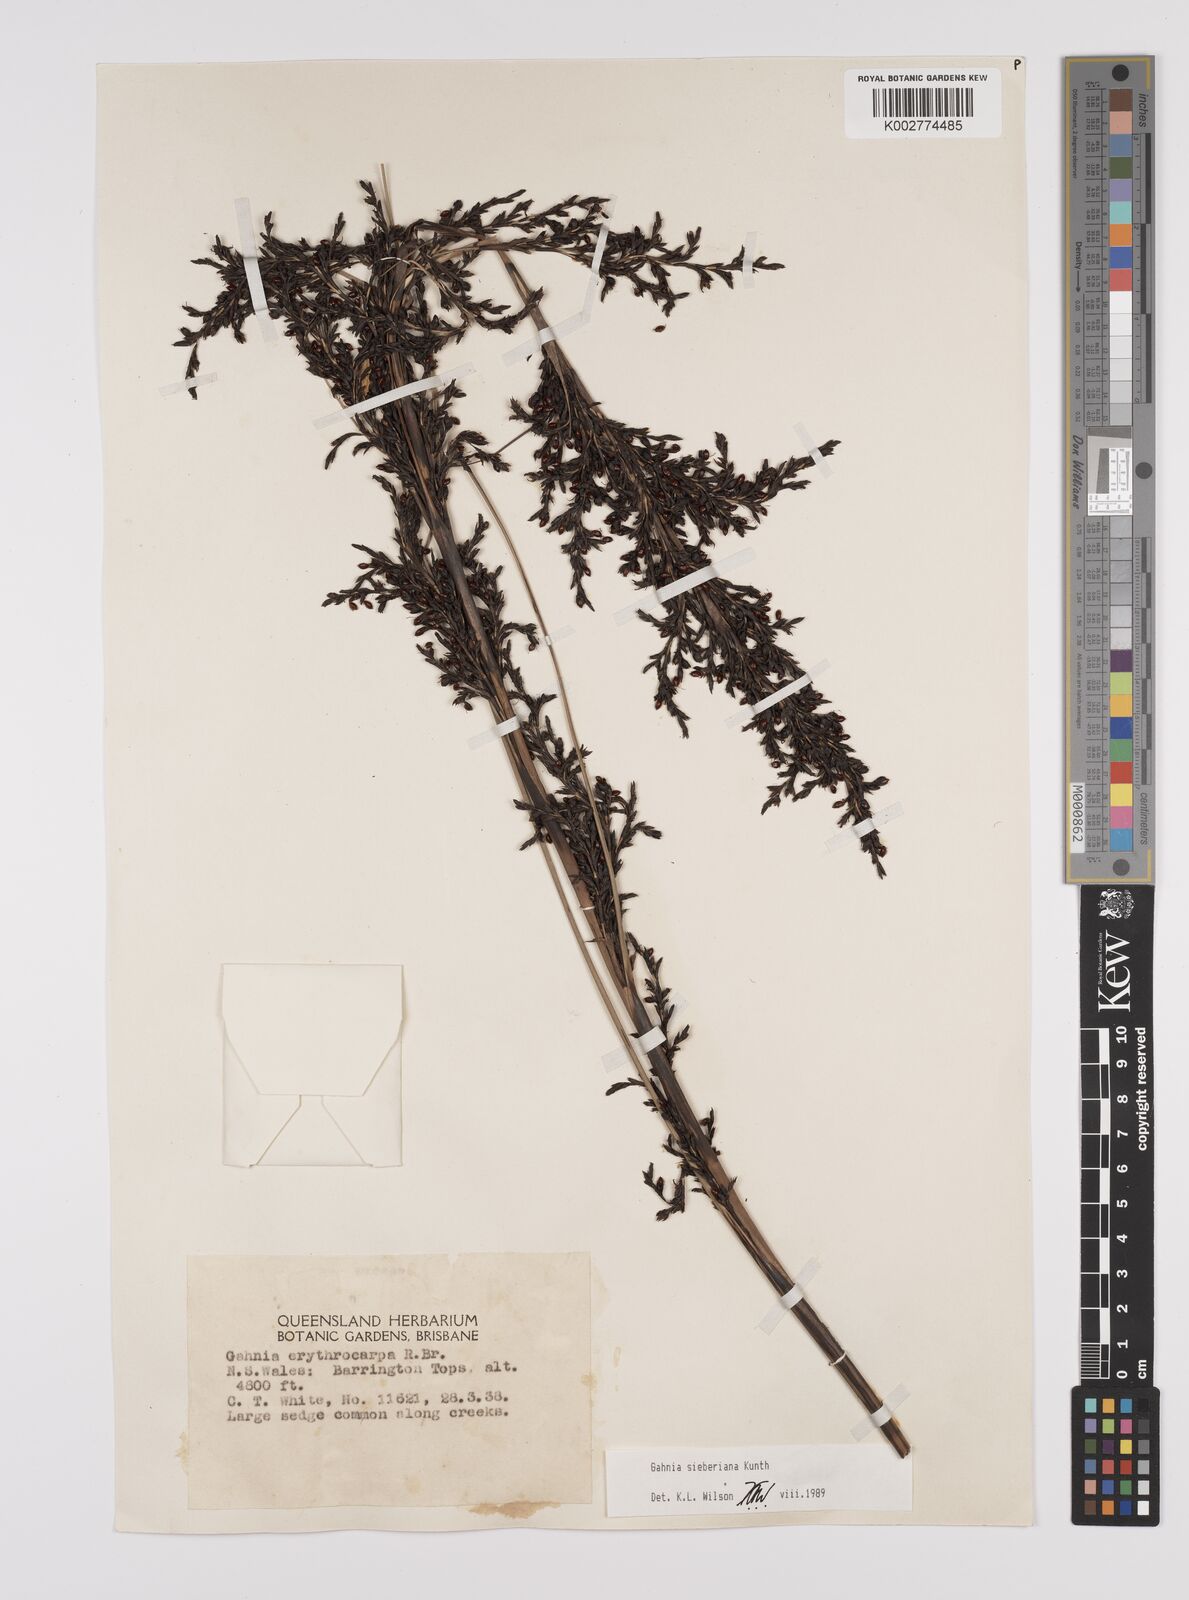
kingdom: Plantae
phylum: Tracheophyta
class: Liliopsida
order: Poales
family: Cyperaceae
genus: Gahnia
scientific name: Gahnia sieberiana
